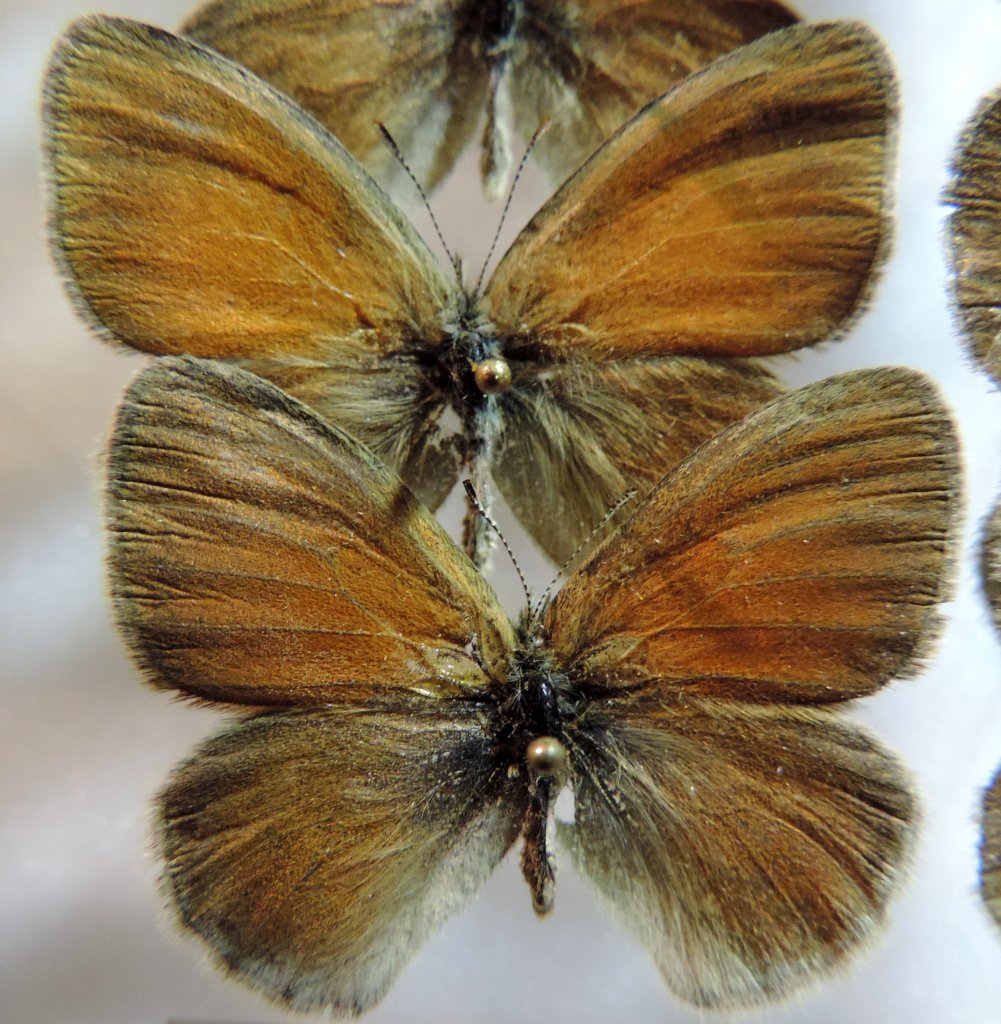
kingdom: Animalia
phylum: Arthropoda
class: Insecta
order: Lepidoptera
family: Nymphalidae
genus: Coenonympha
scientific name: Coenonympha tullia
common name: Large Heath
